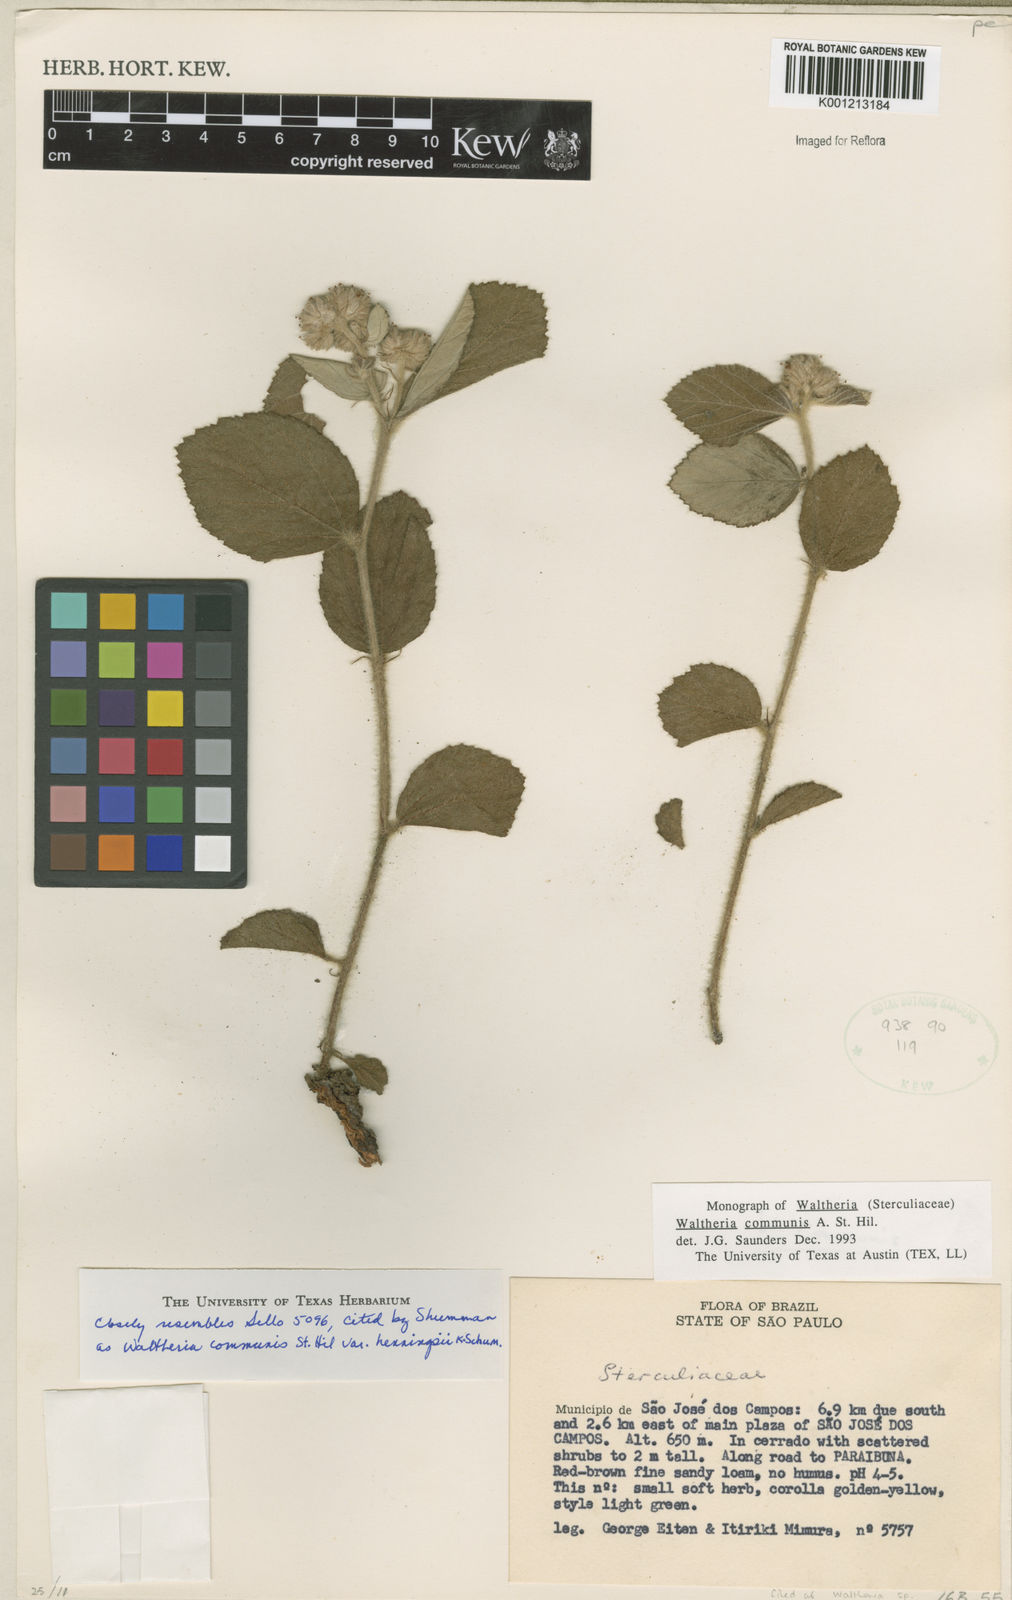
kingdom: Plantae
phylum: Tracheophyta
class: Magnoliopsida
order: Malvales
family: Malvaceae
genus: Waltheria
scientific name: Waltheria communis
